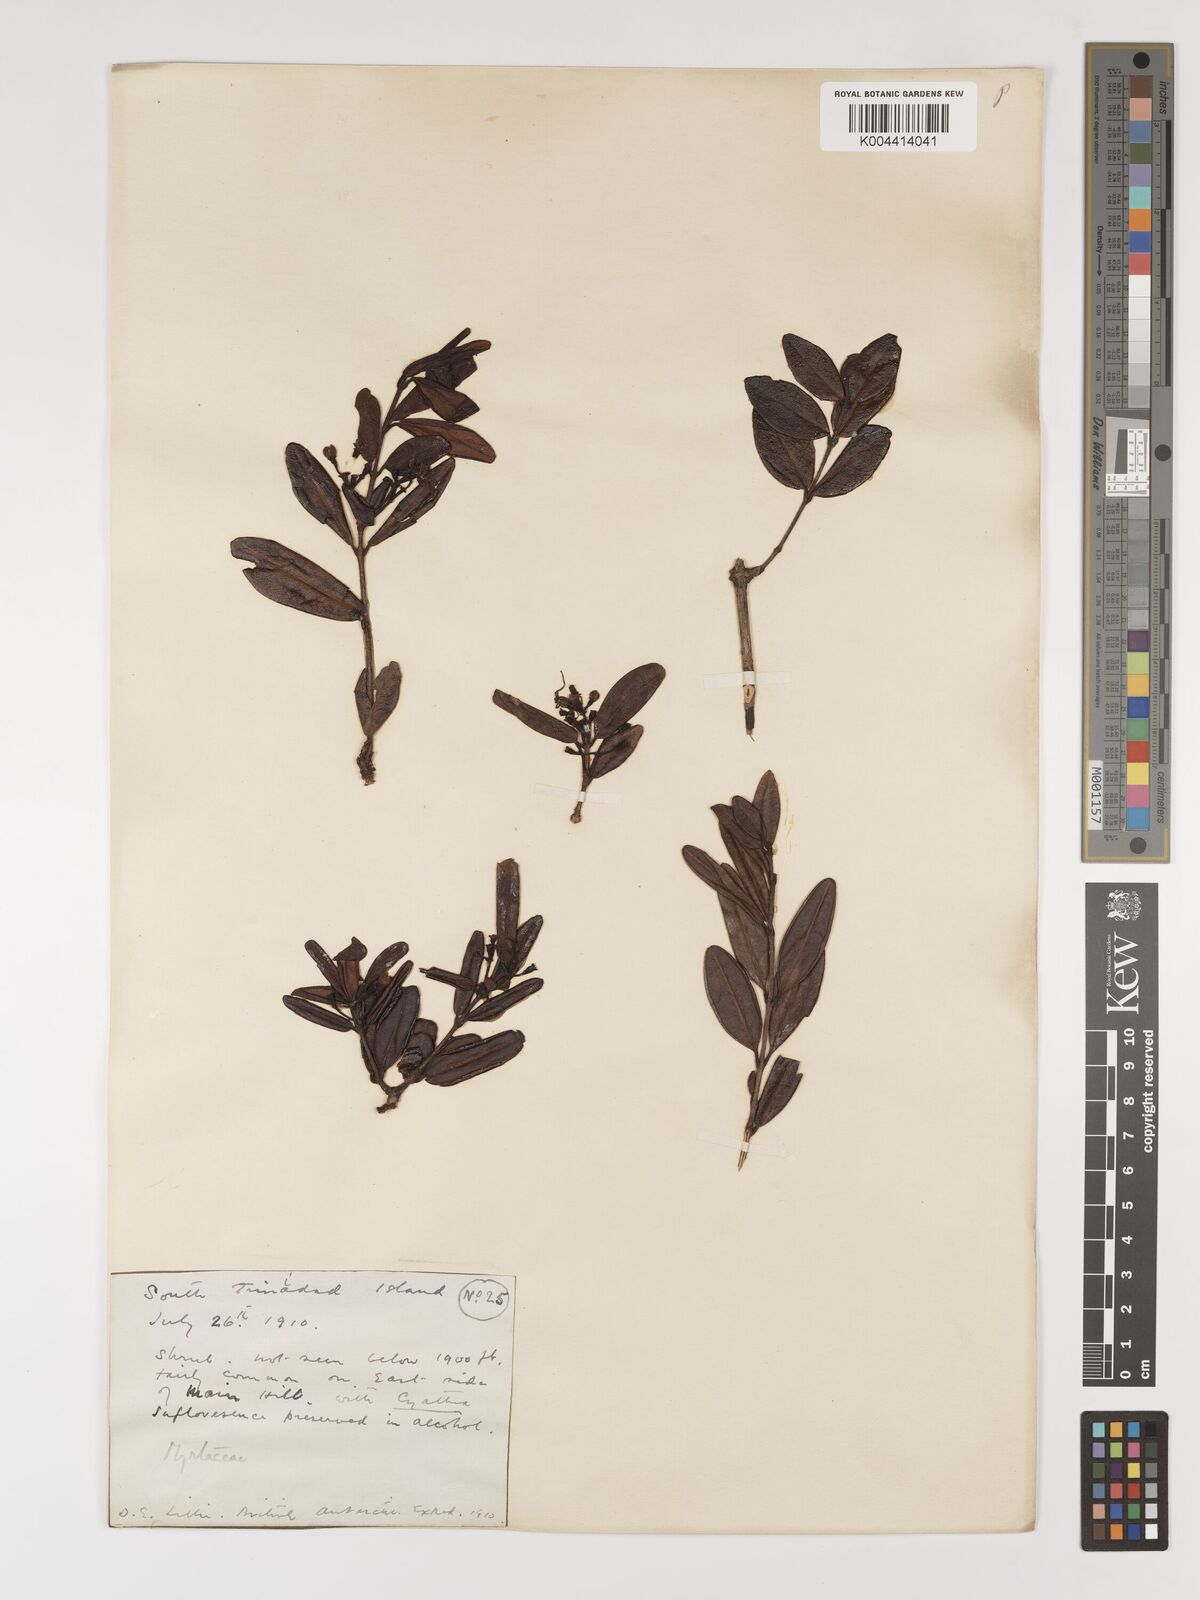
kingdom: Plantae
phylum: Tracheophyta
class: Magnoliopsida
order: Myrtales
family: Myrtaceae
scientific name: Myrtaceae
